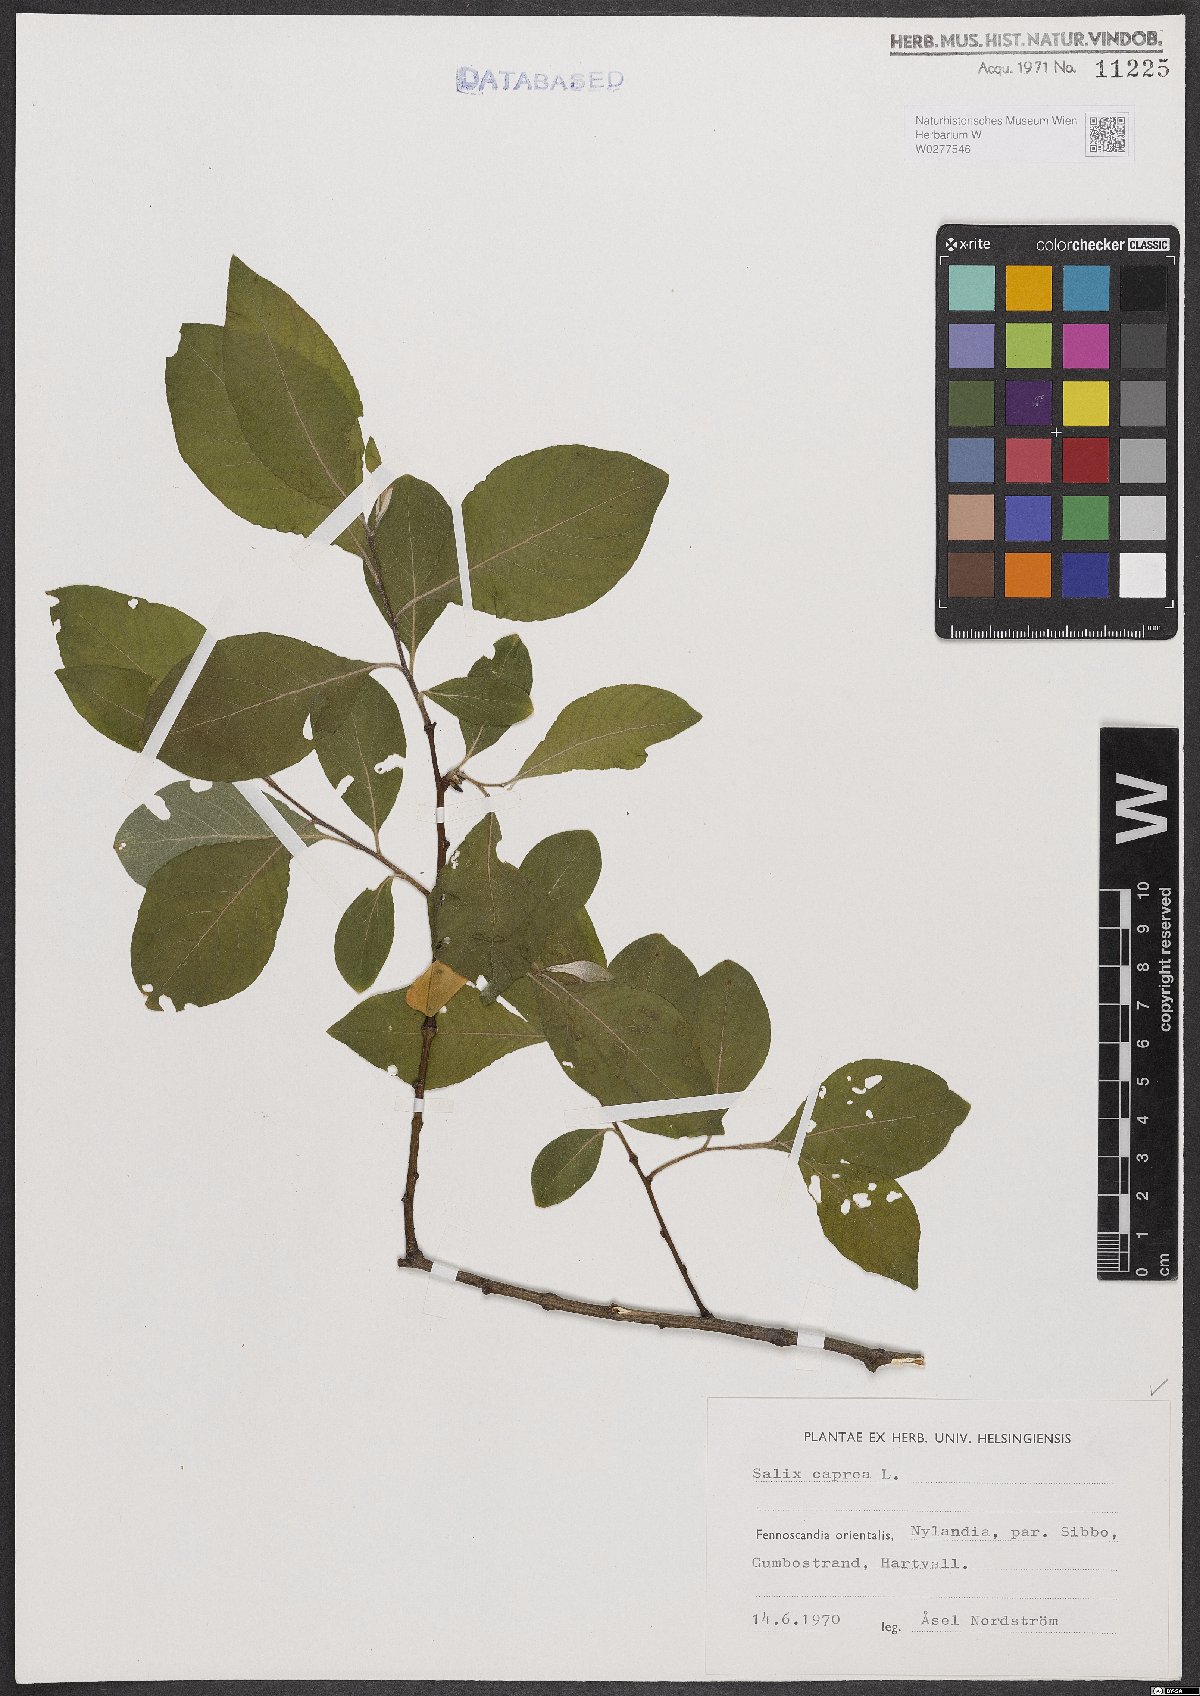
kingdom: Plantae
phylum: Tracheophyta
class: Magnoliopsida
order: Malpighiales
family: Salicaceae
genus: Salix
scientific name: Salix caprea
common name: Goat willow
